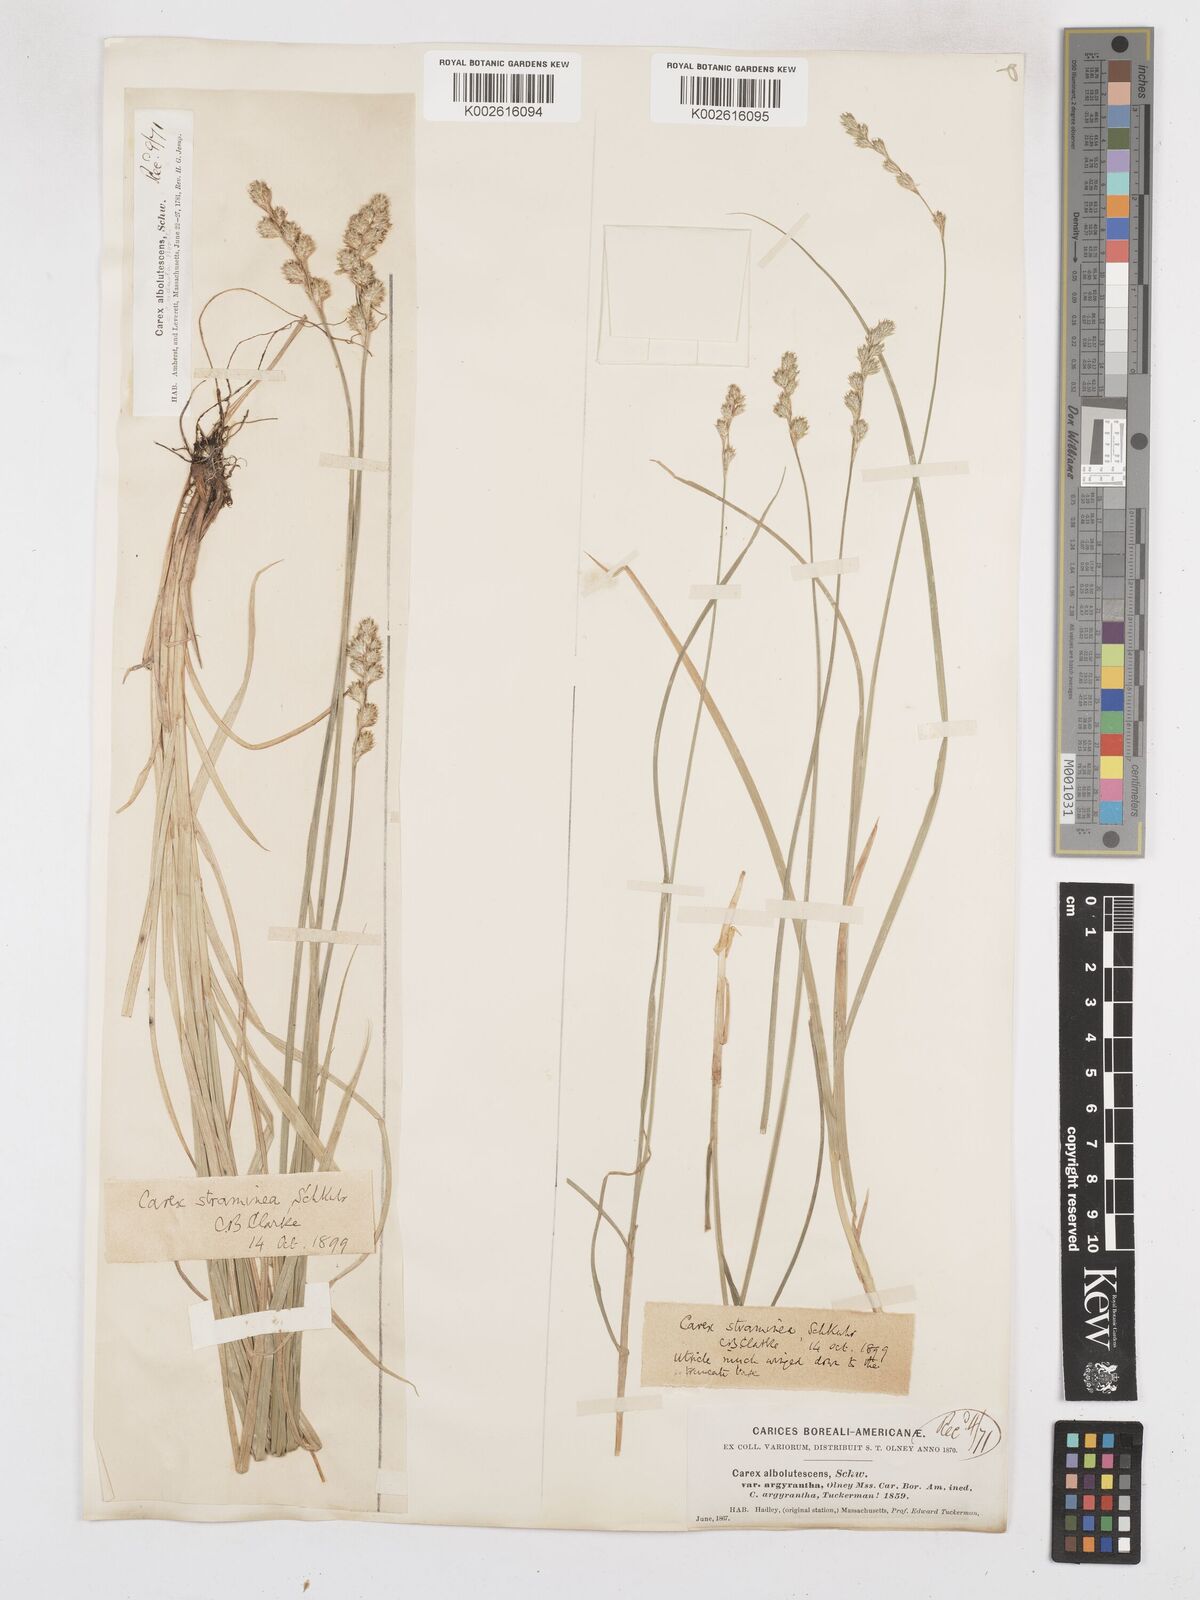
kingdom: Plantae
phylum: Tracheophyta
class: Liliopsida
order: Poales
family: Cyperaceae
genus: Carex
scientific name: Carex brevior
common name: Brevior sedge
